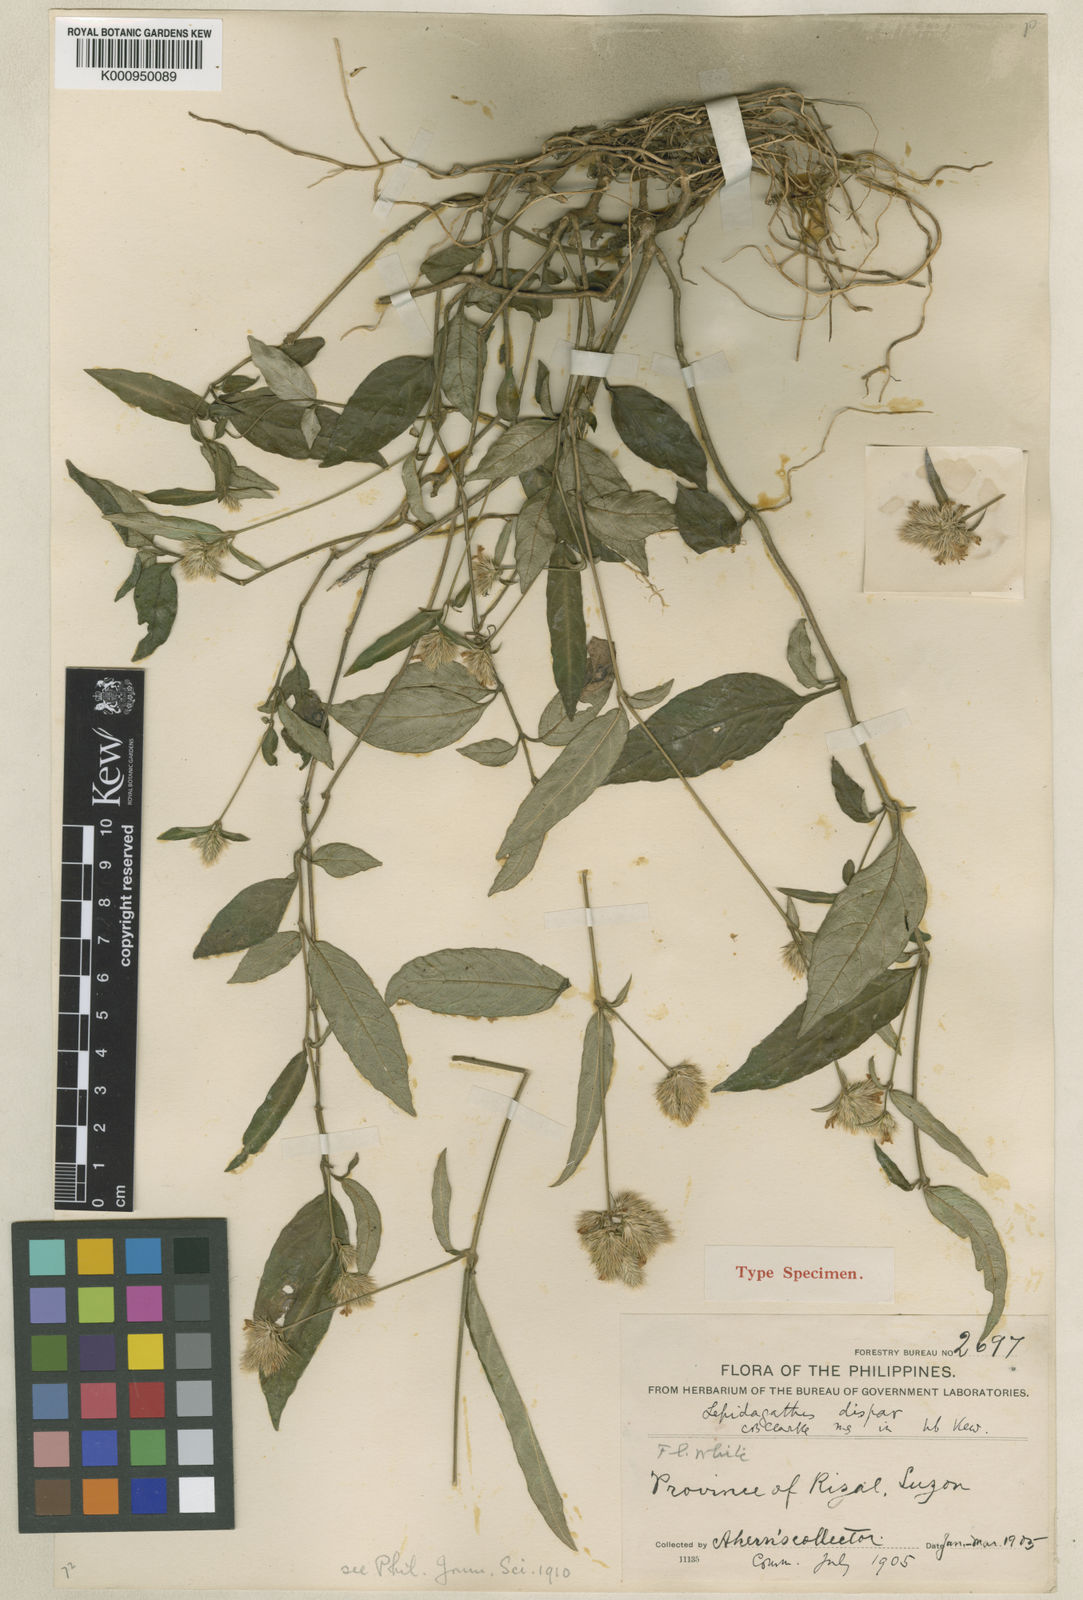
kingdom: Plantae
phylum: Tracheophyta
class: Magnoliopsida
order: Lamiales
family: Acanthaceae
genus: Lepidagathis
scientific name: Lepidagathis dispar
